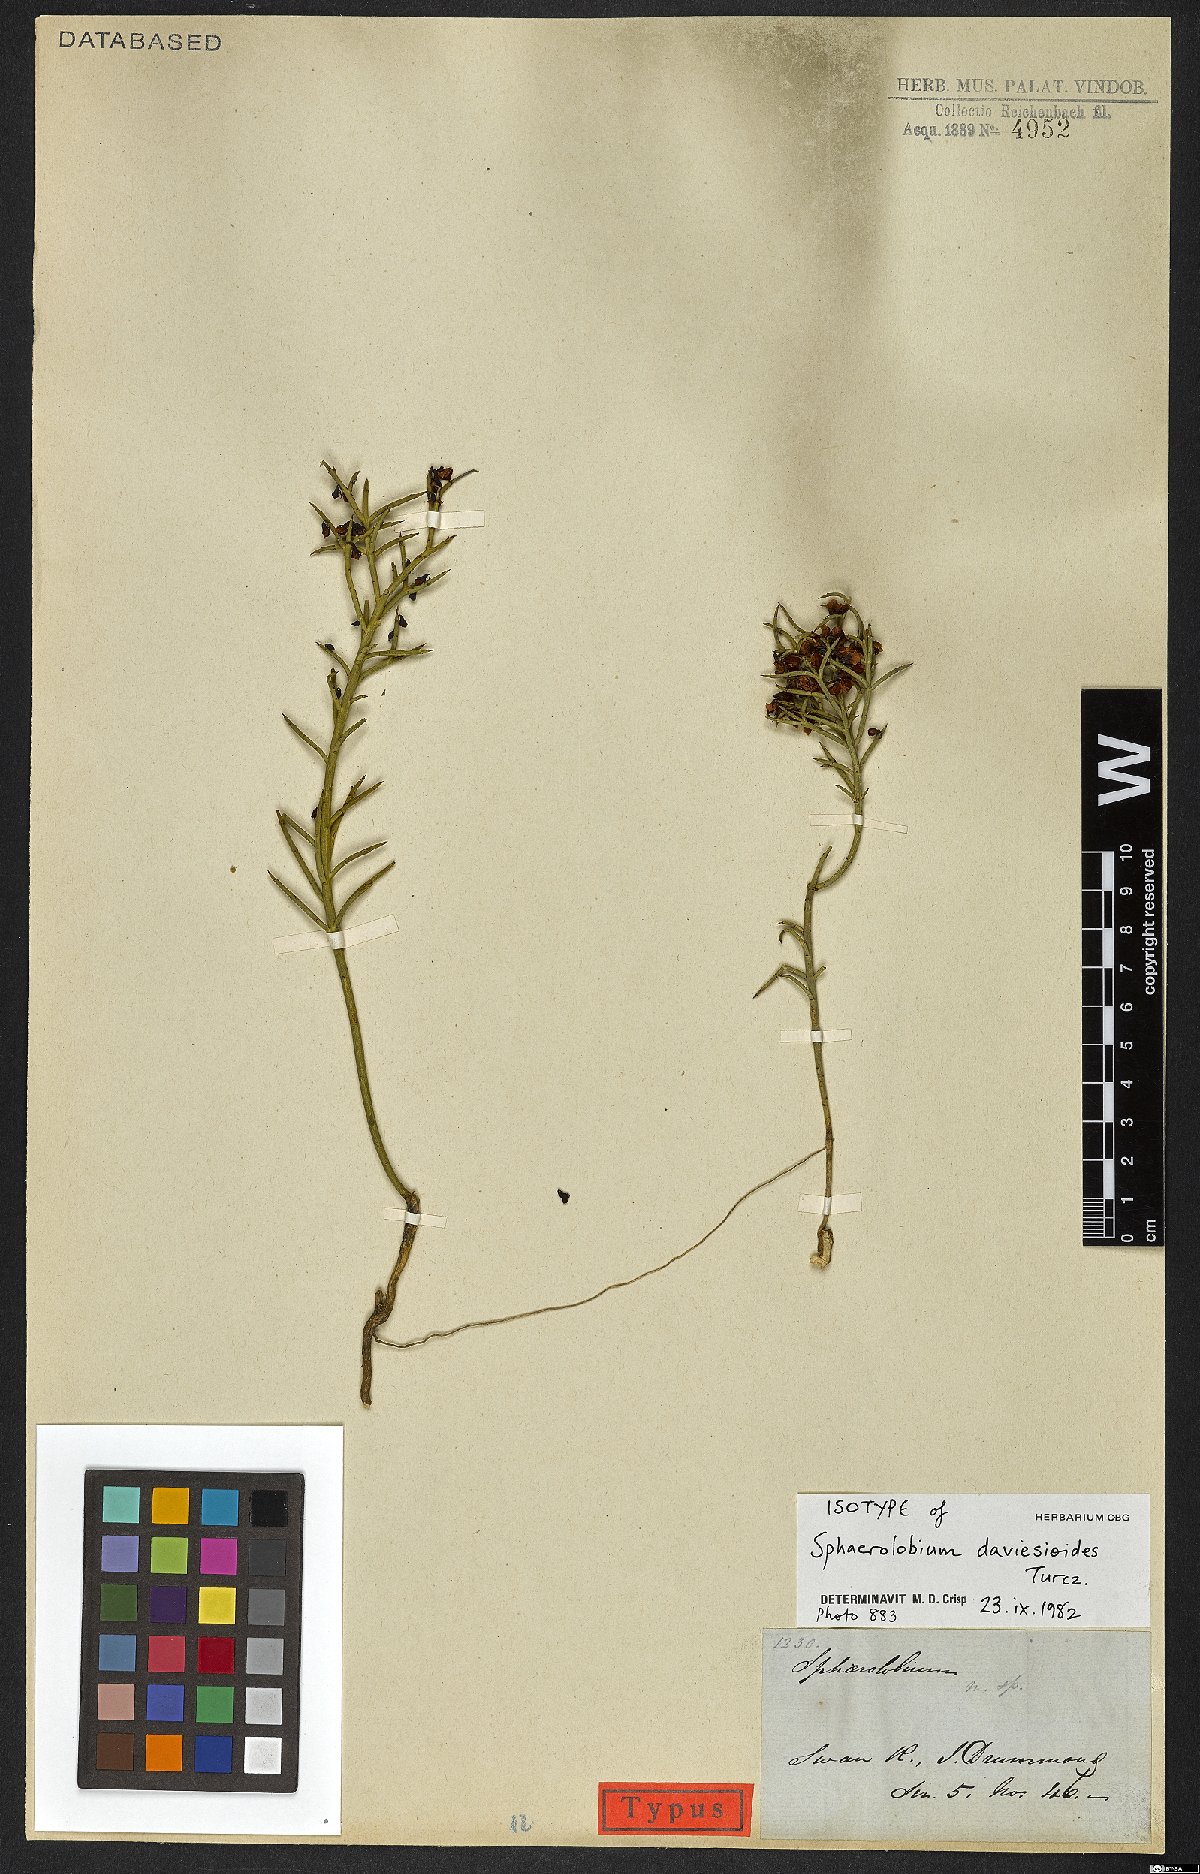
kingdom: Plantae
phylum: Tracheophyta
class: Magnoliopsida
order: Fabales
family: Fabaceae
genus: Sphaerolobium
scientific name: Sphaerolobium daviesioides
